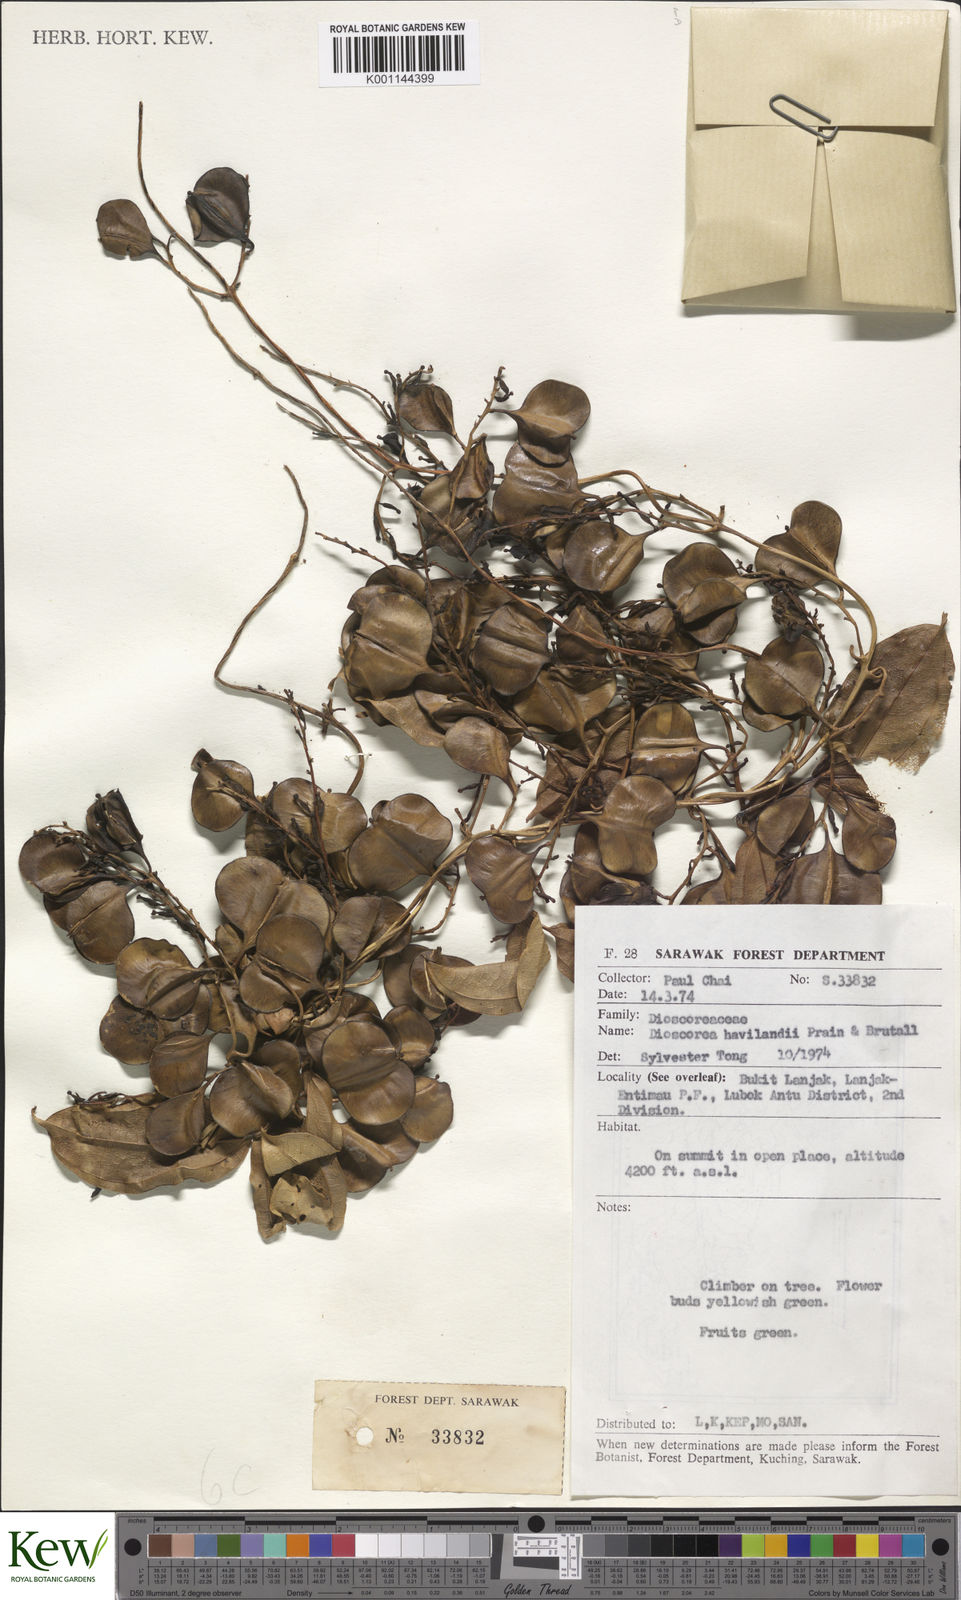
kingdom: Plantae
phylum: Tracheophyta
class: Liliopsida
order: Dioscoreales
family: Dioscoreaceae
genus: Dioscorea
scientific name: Dioscorea havilandii
